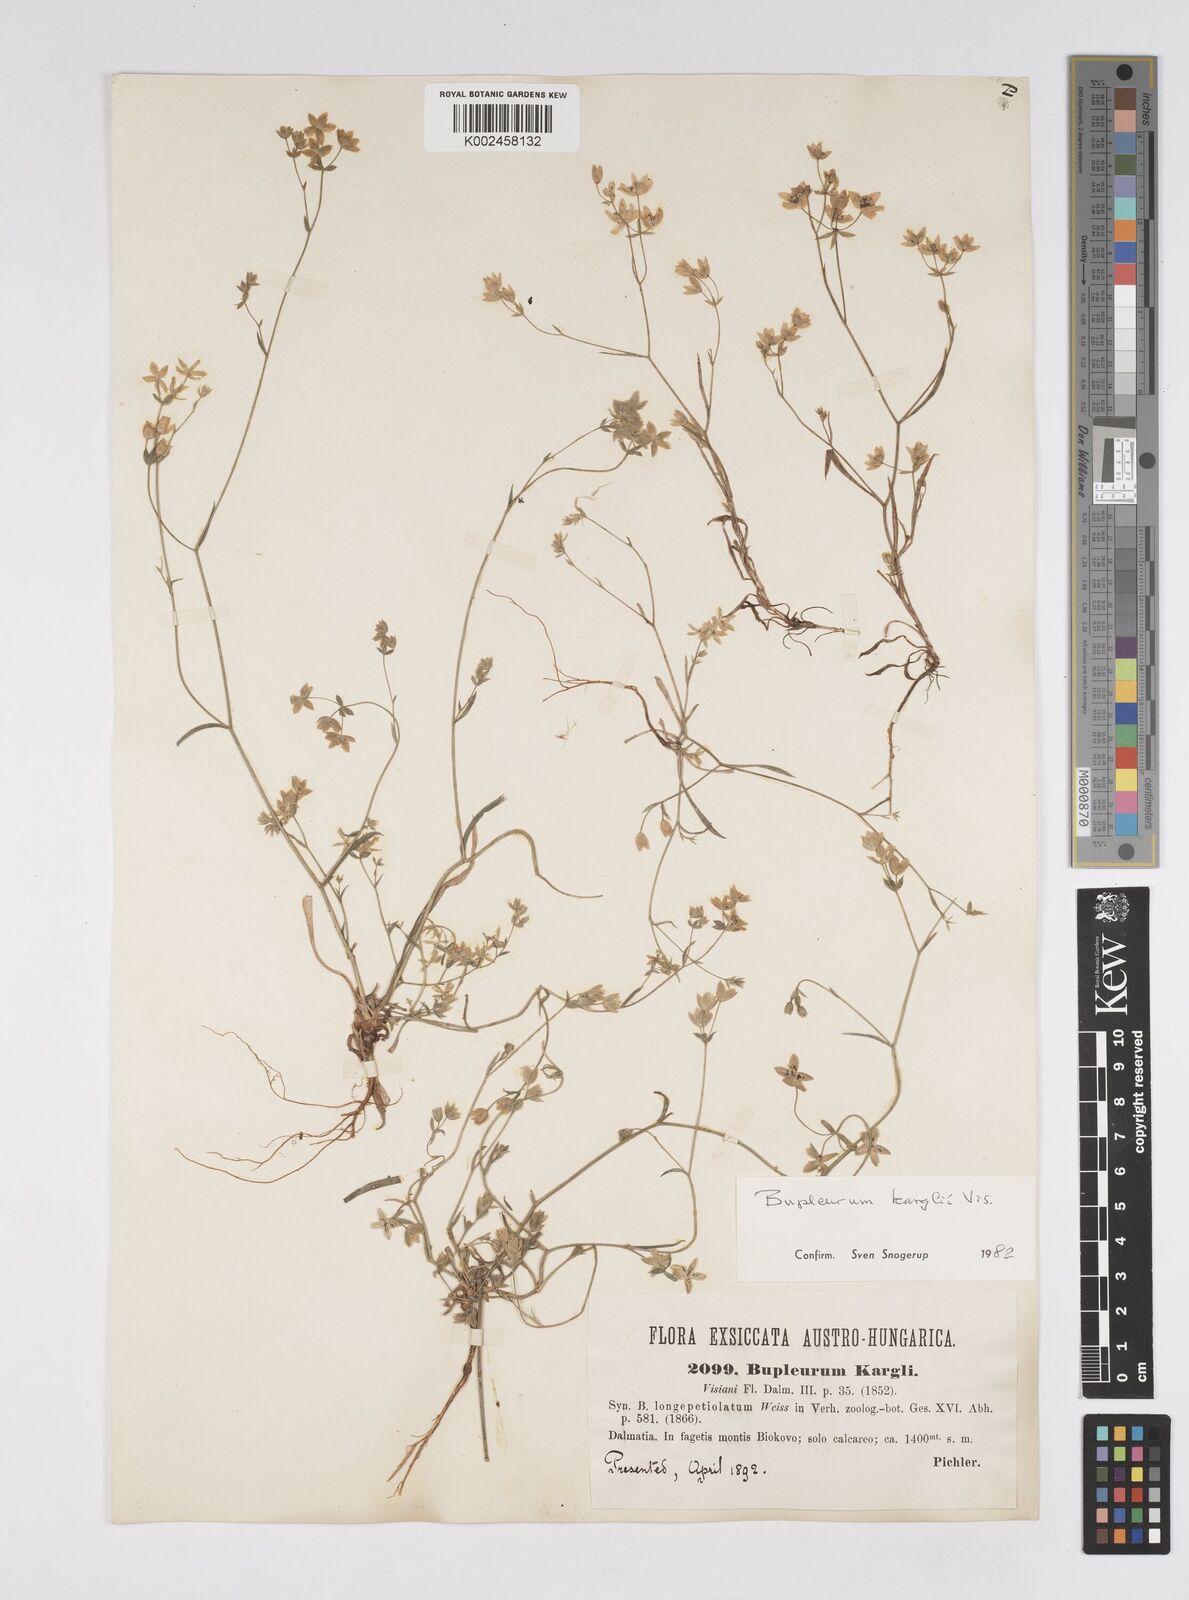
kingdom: Plantae
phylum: Tracheophyta
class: Magnoliopsida
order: Apiales
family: Apiaceae
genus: Bupleurum
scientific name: Bupleurum karglii
